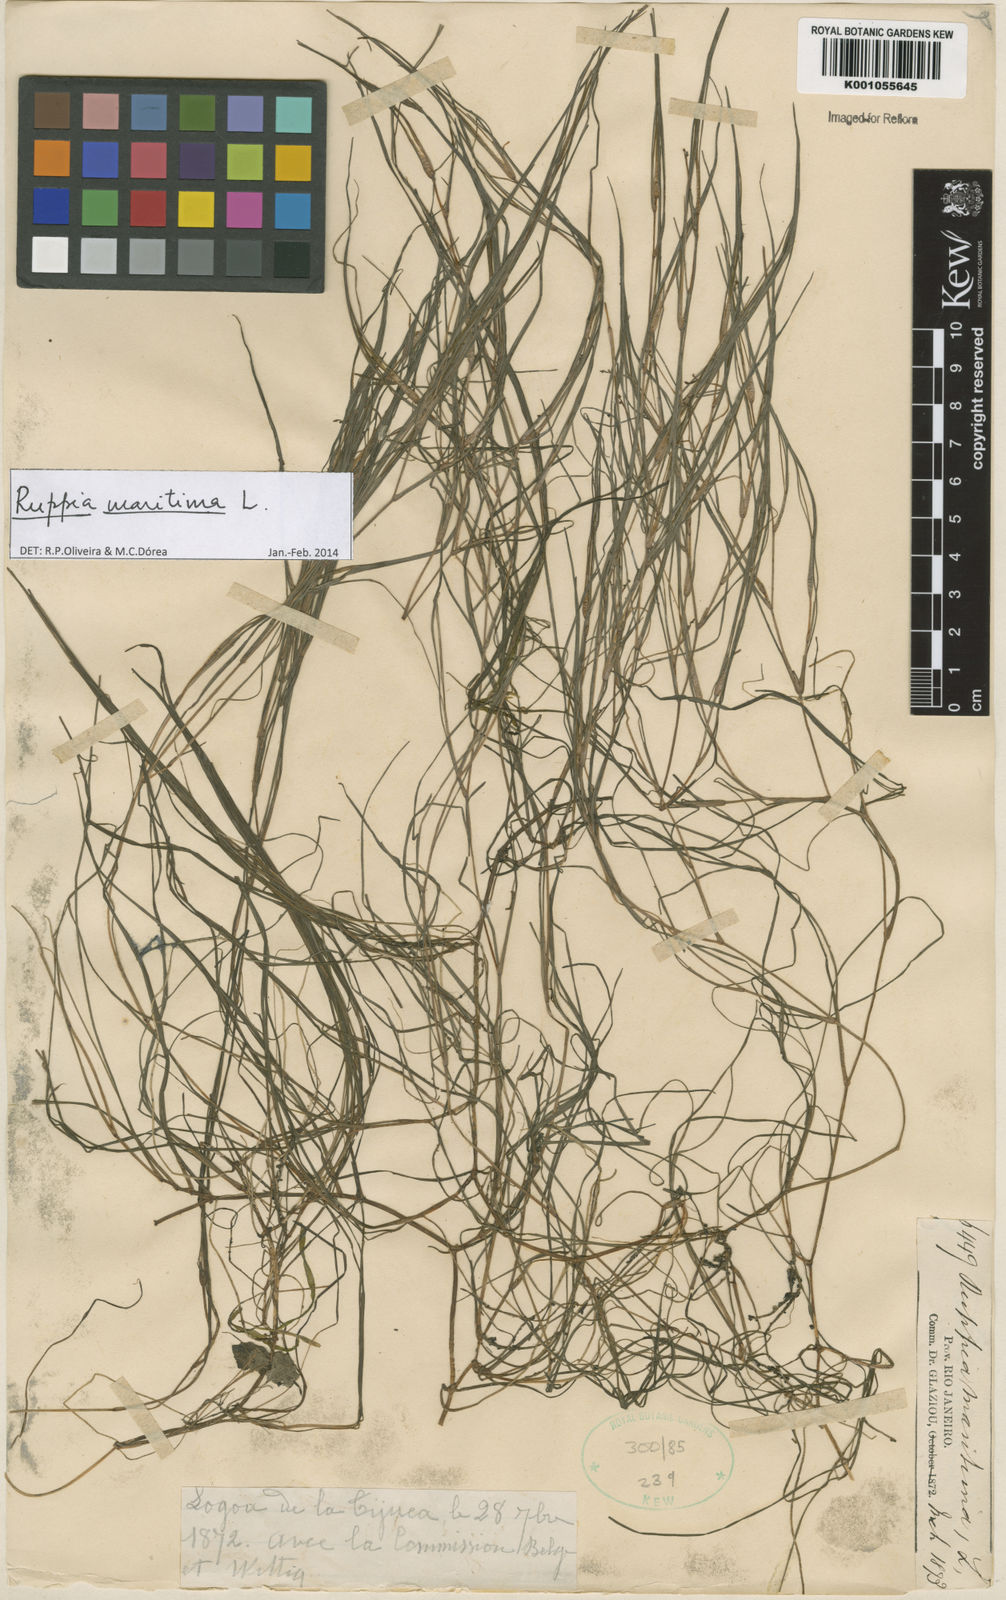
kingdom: Plantae
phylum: Tracheophyta
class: Liliopsida
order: Alismatales
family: Ruppiaceae
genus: Ruppia
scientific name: Ruppia maritima
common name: Beaked tasselweed
